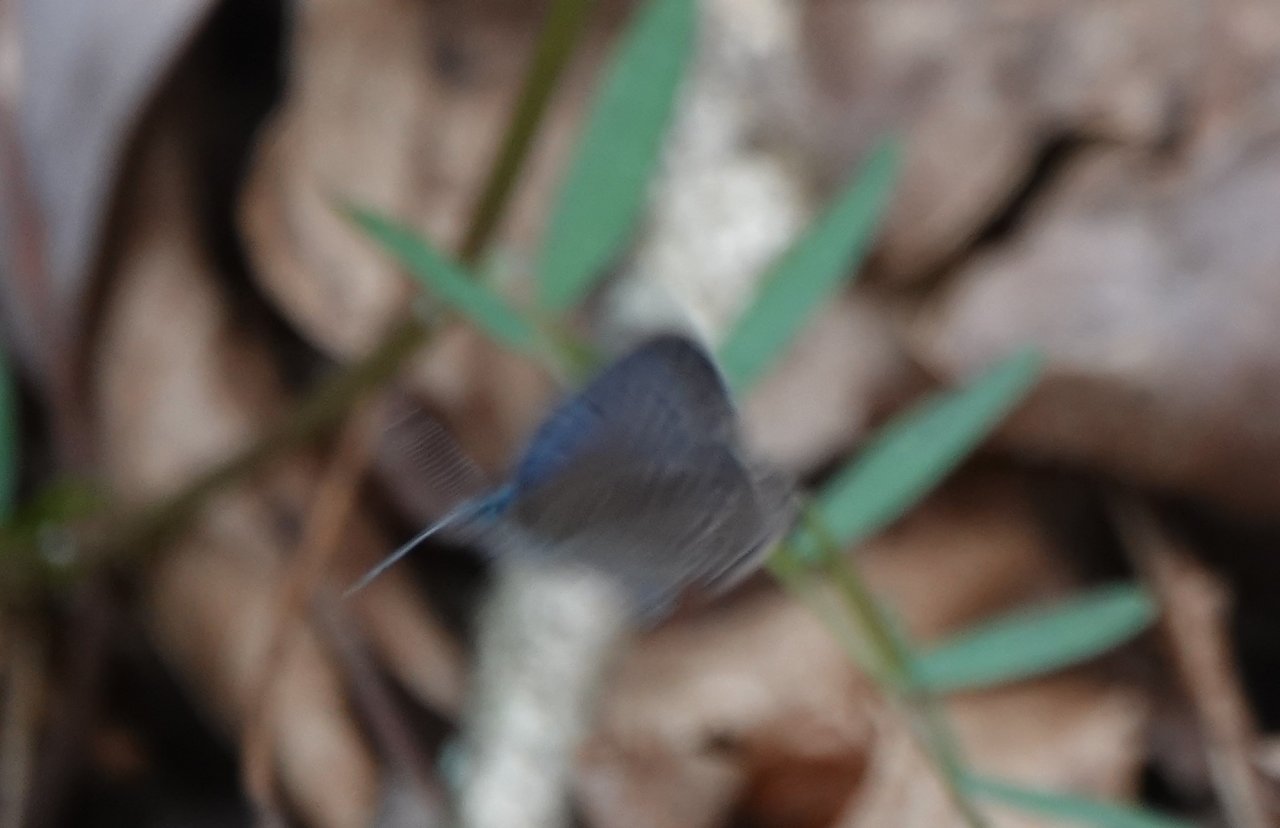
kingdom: Animalia
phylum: Arthropoda
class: Insecta
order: Lepidoptera
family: Lycaenidae
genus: Glaucopsyche
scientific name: Glaucopsyche lygdamus
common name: Silvery Blue
